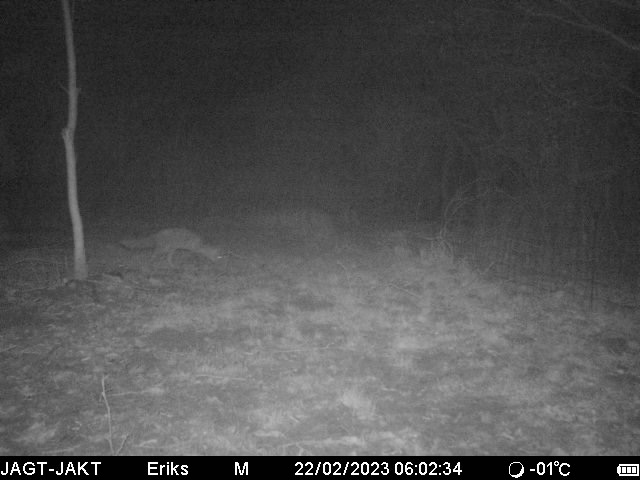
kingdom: Animalia
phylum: Chordata
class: Mammalia
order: Carnivora
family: Canidae
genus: Vulpes
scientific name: Vulpes vulpes
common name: Ræv
